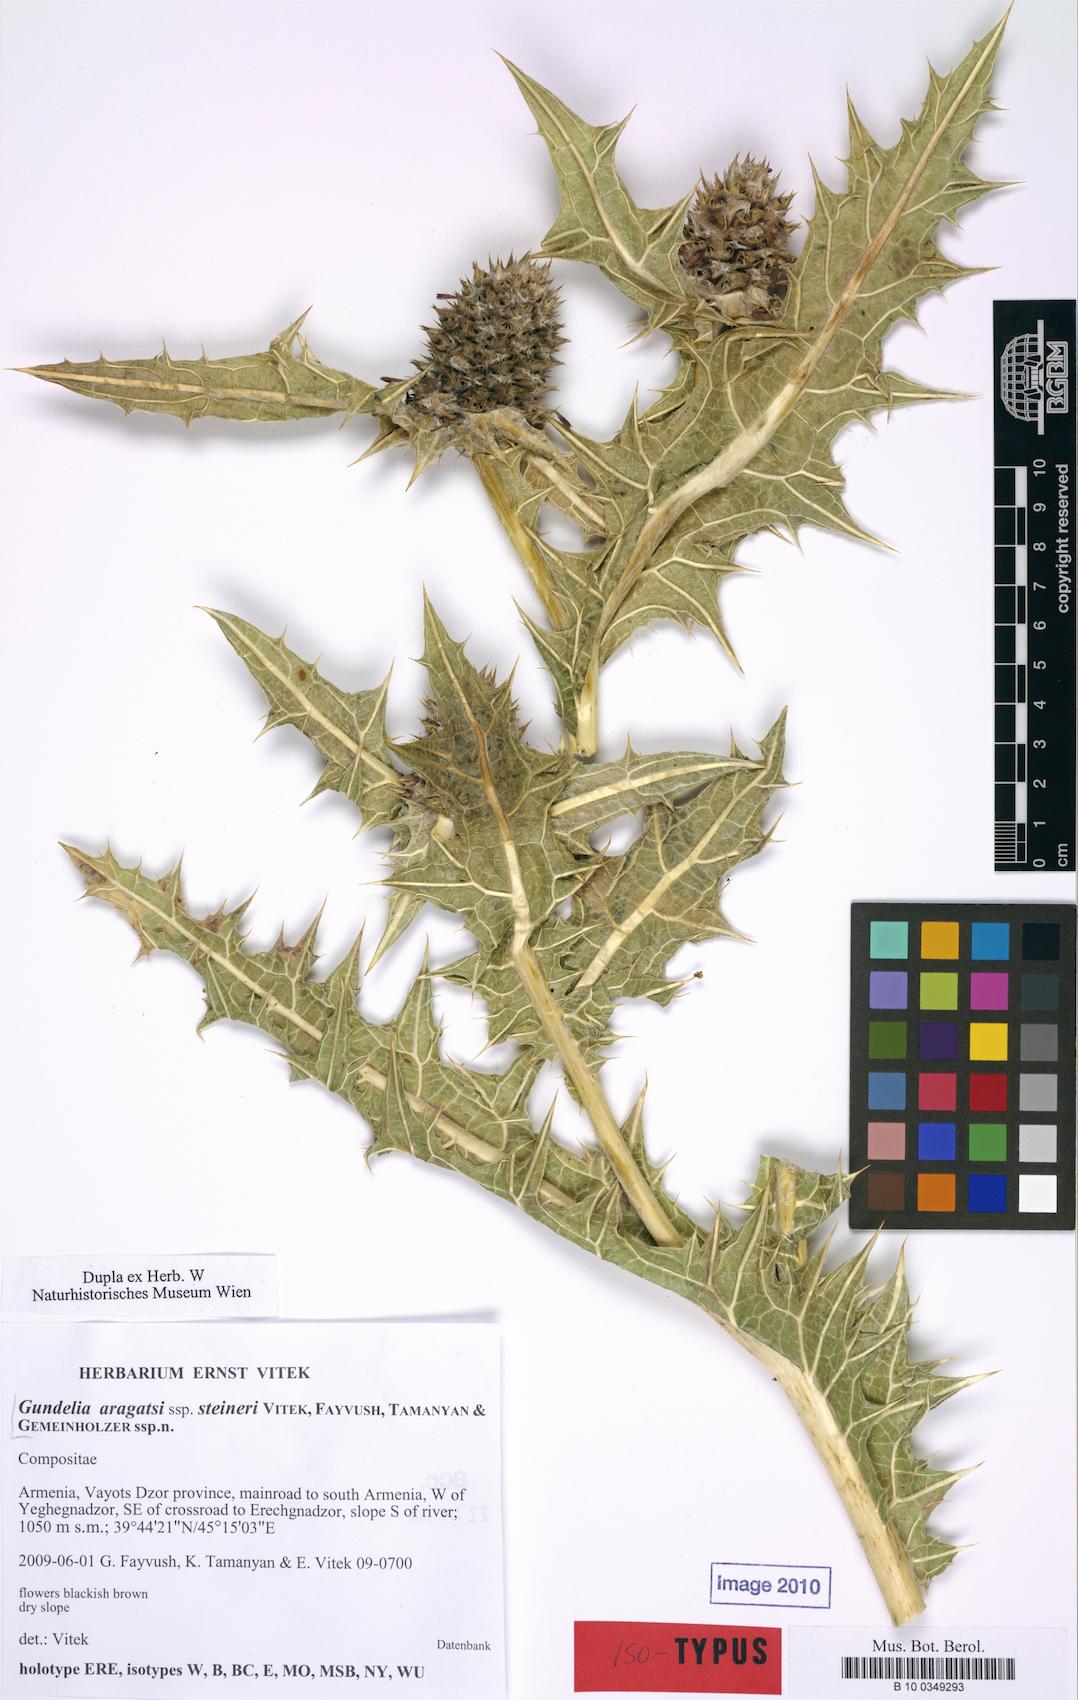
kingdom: Plantae
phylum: Tracheophyta
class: Magnoliopsida
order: Asterales
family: Asteraceae
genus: Gundelia
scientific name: Gundelia aragatsi
